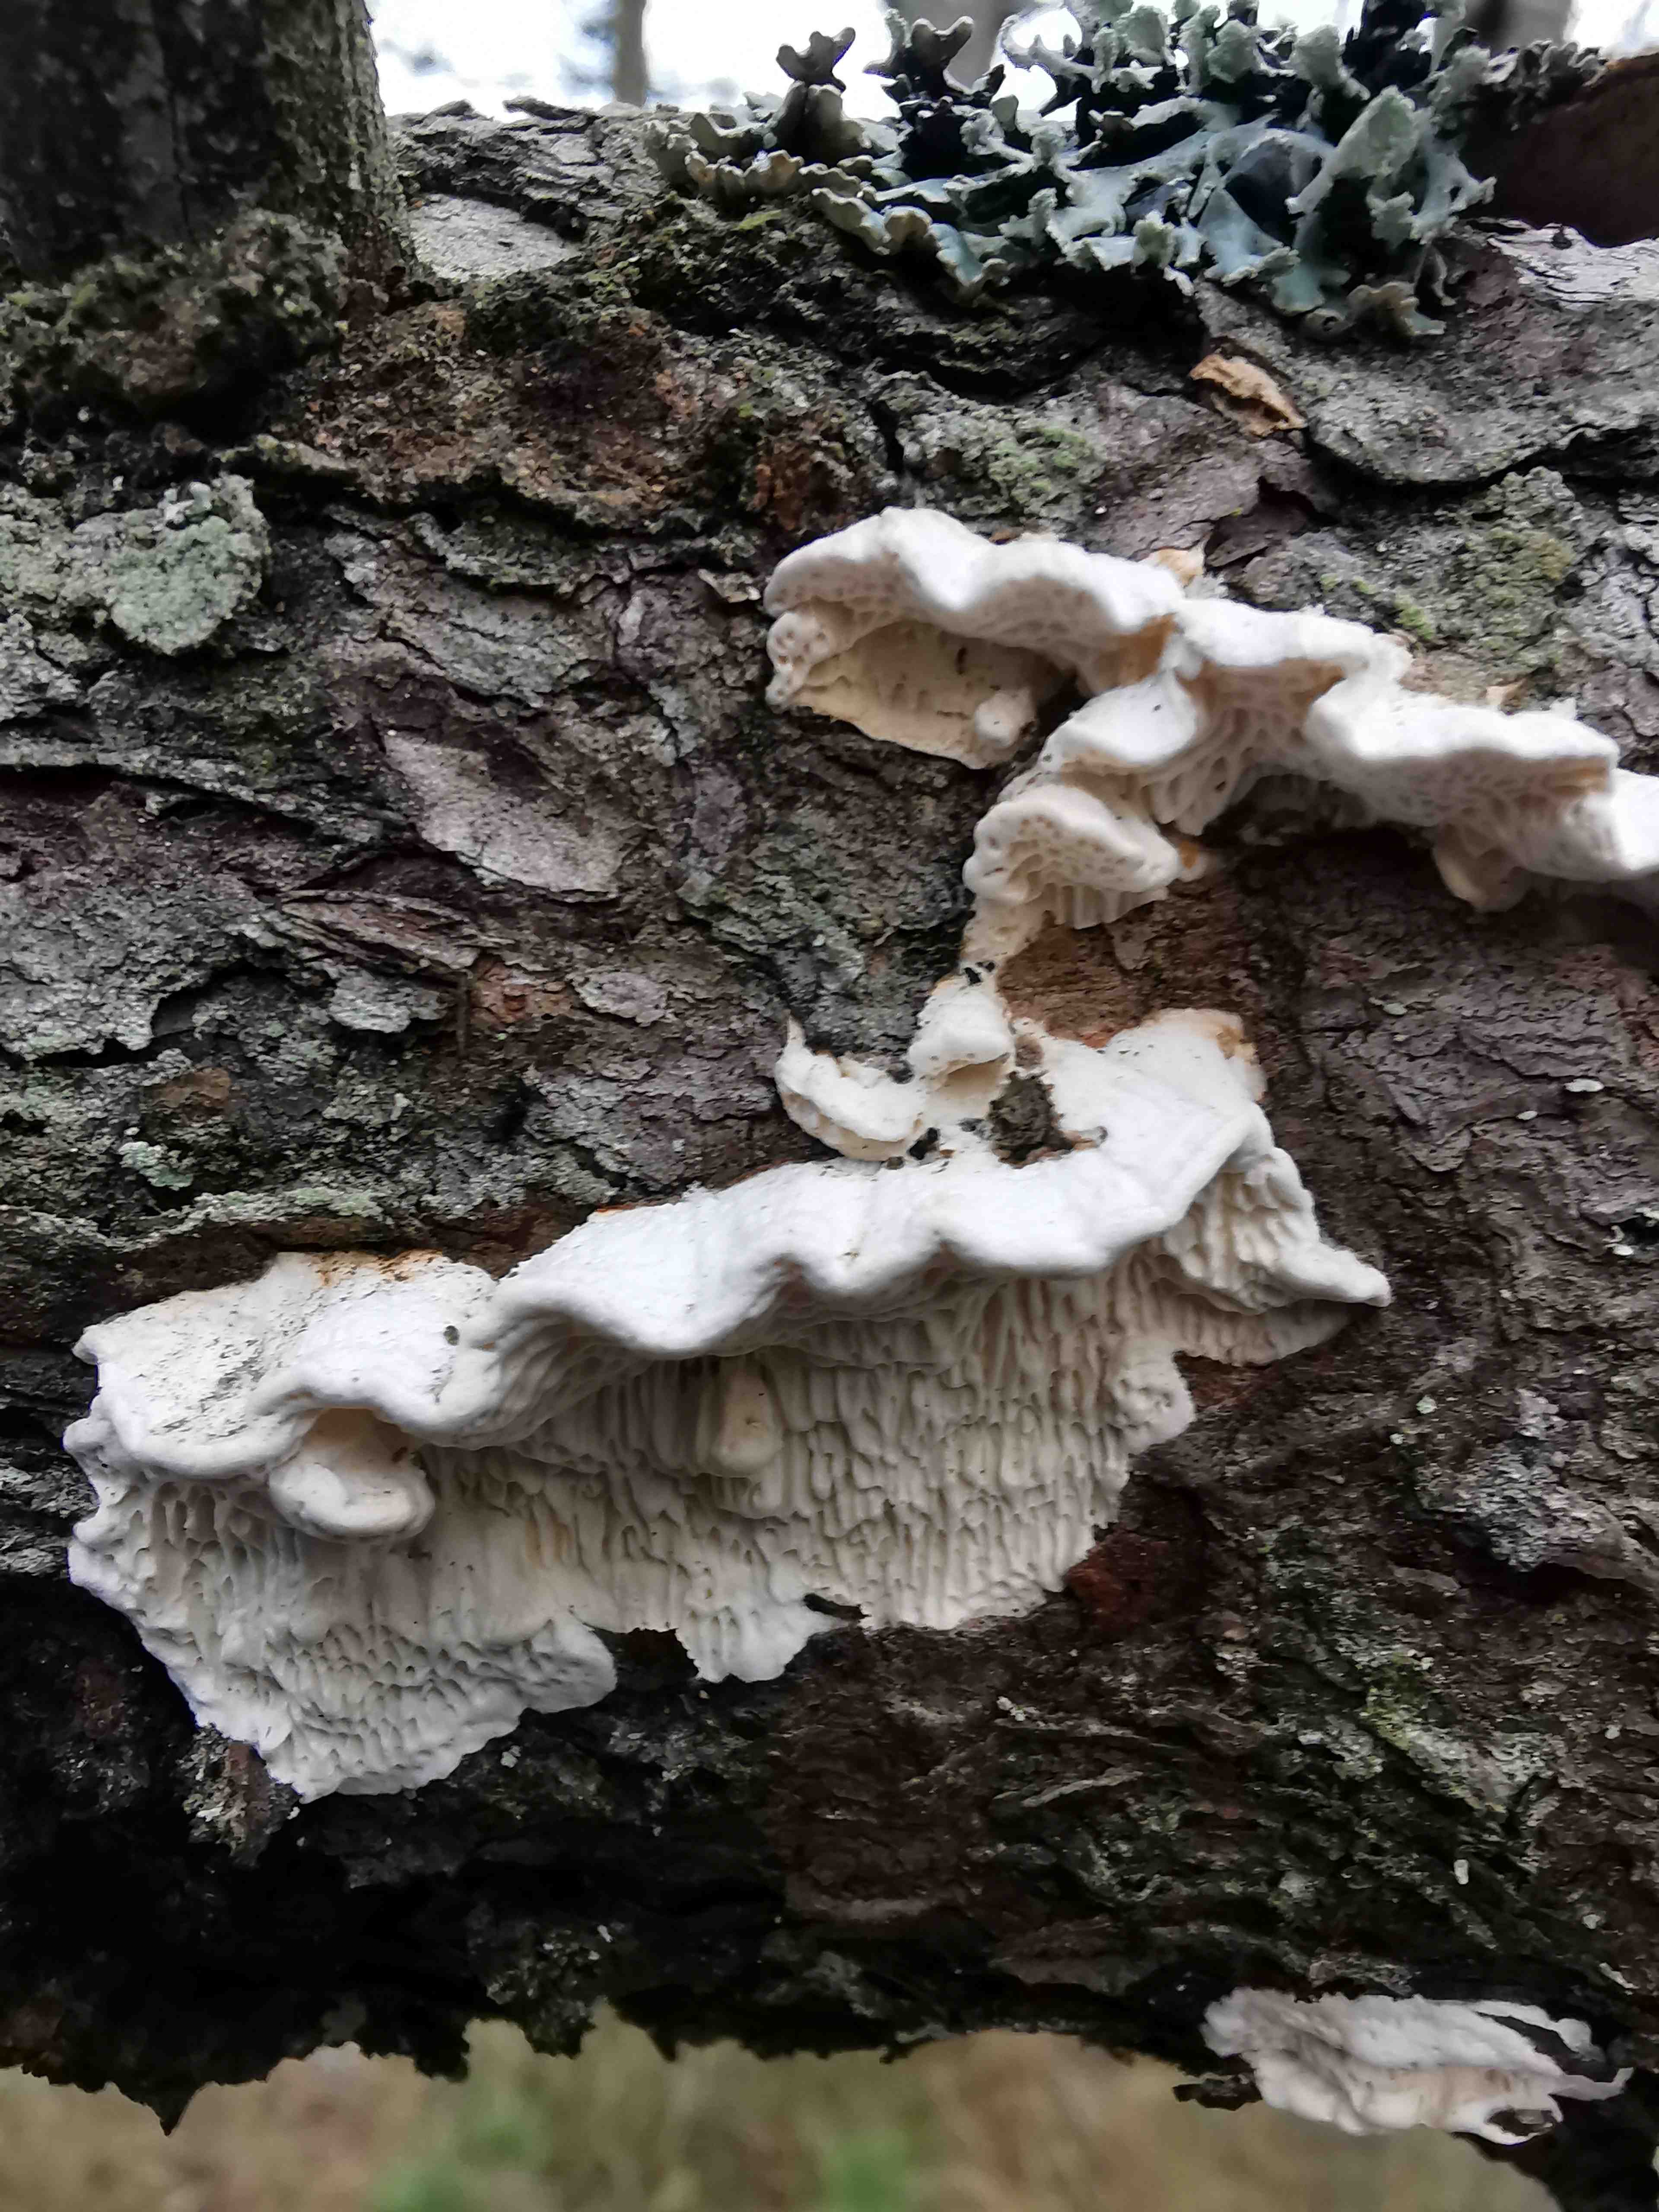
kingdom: Fungi
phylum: Basidiomycota
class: Agaricomycetes
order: Polyporales
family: Fomitopsidaceae
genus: Fomitopsis
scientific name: Fomitopsis
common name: fyrre-skiveporesvamp
